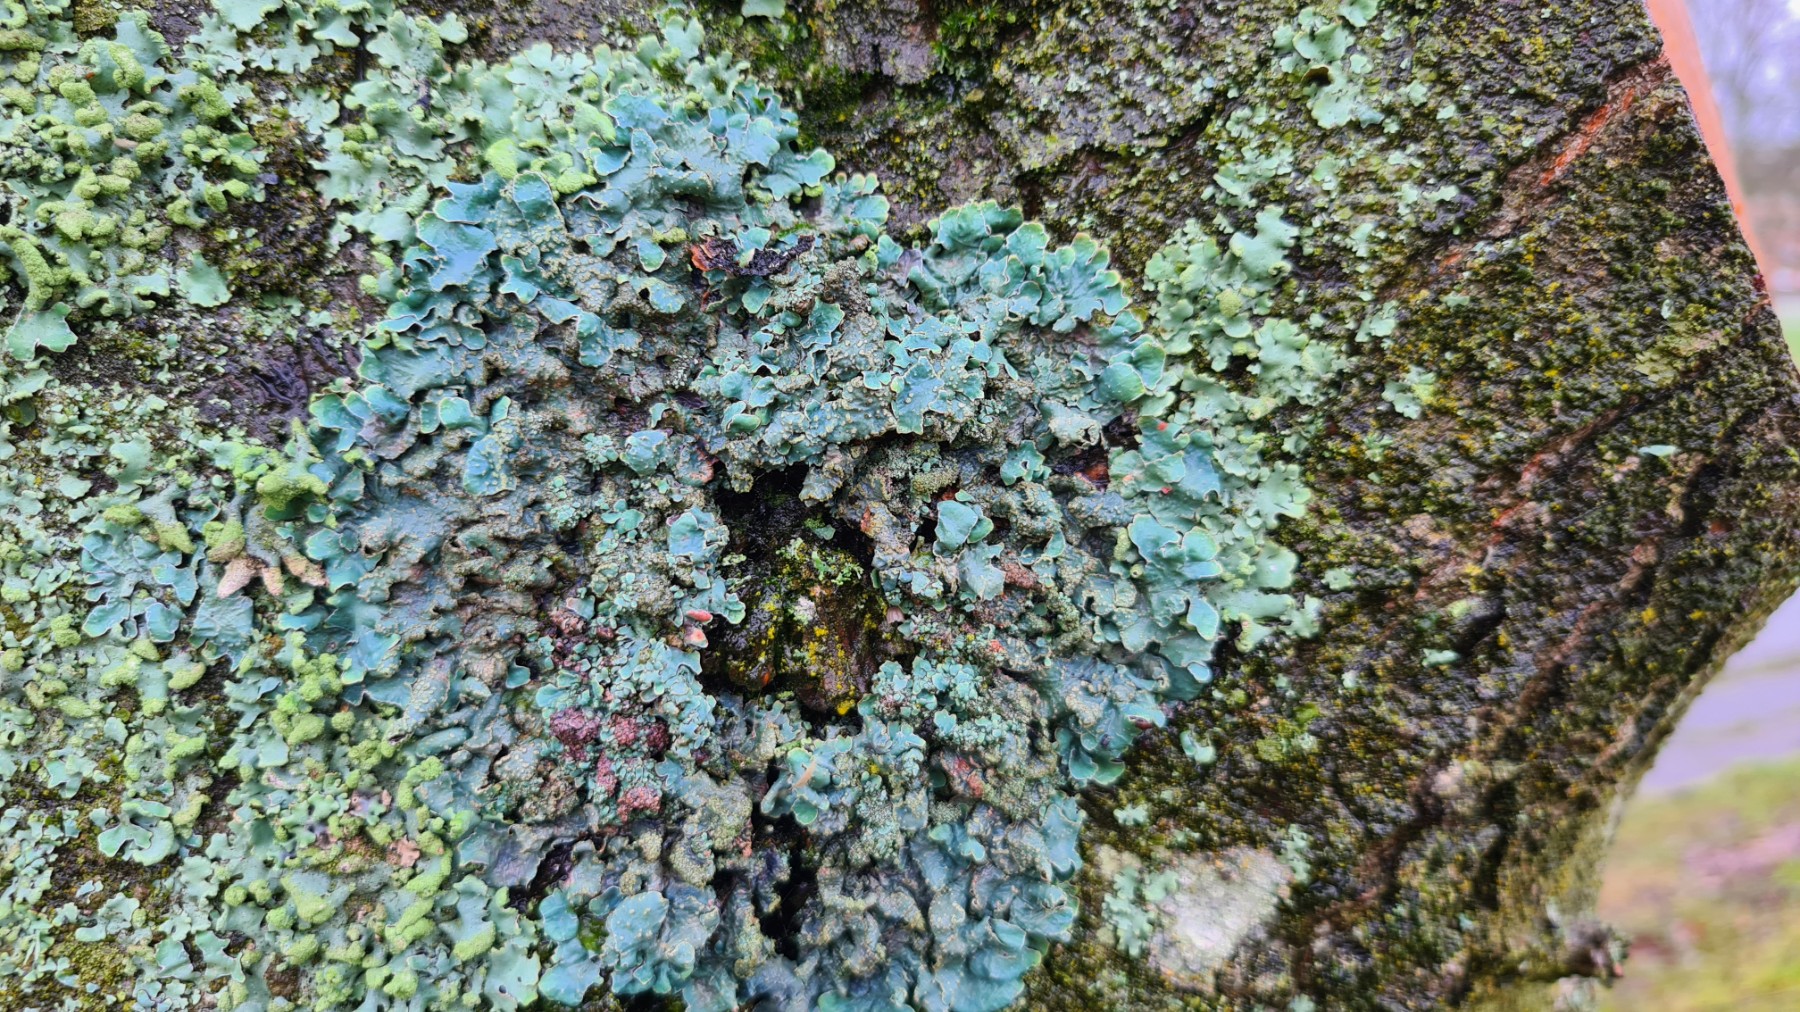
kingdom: Fungi
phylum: Ascomycota
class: Lecanoromycetes
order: Lecanorales
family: Parmeliaceae
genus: Parmelia
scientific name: Parmelia sulcata
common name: rynket skållav
